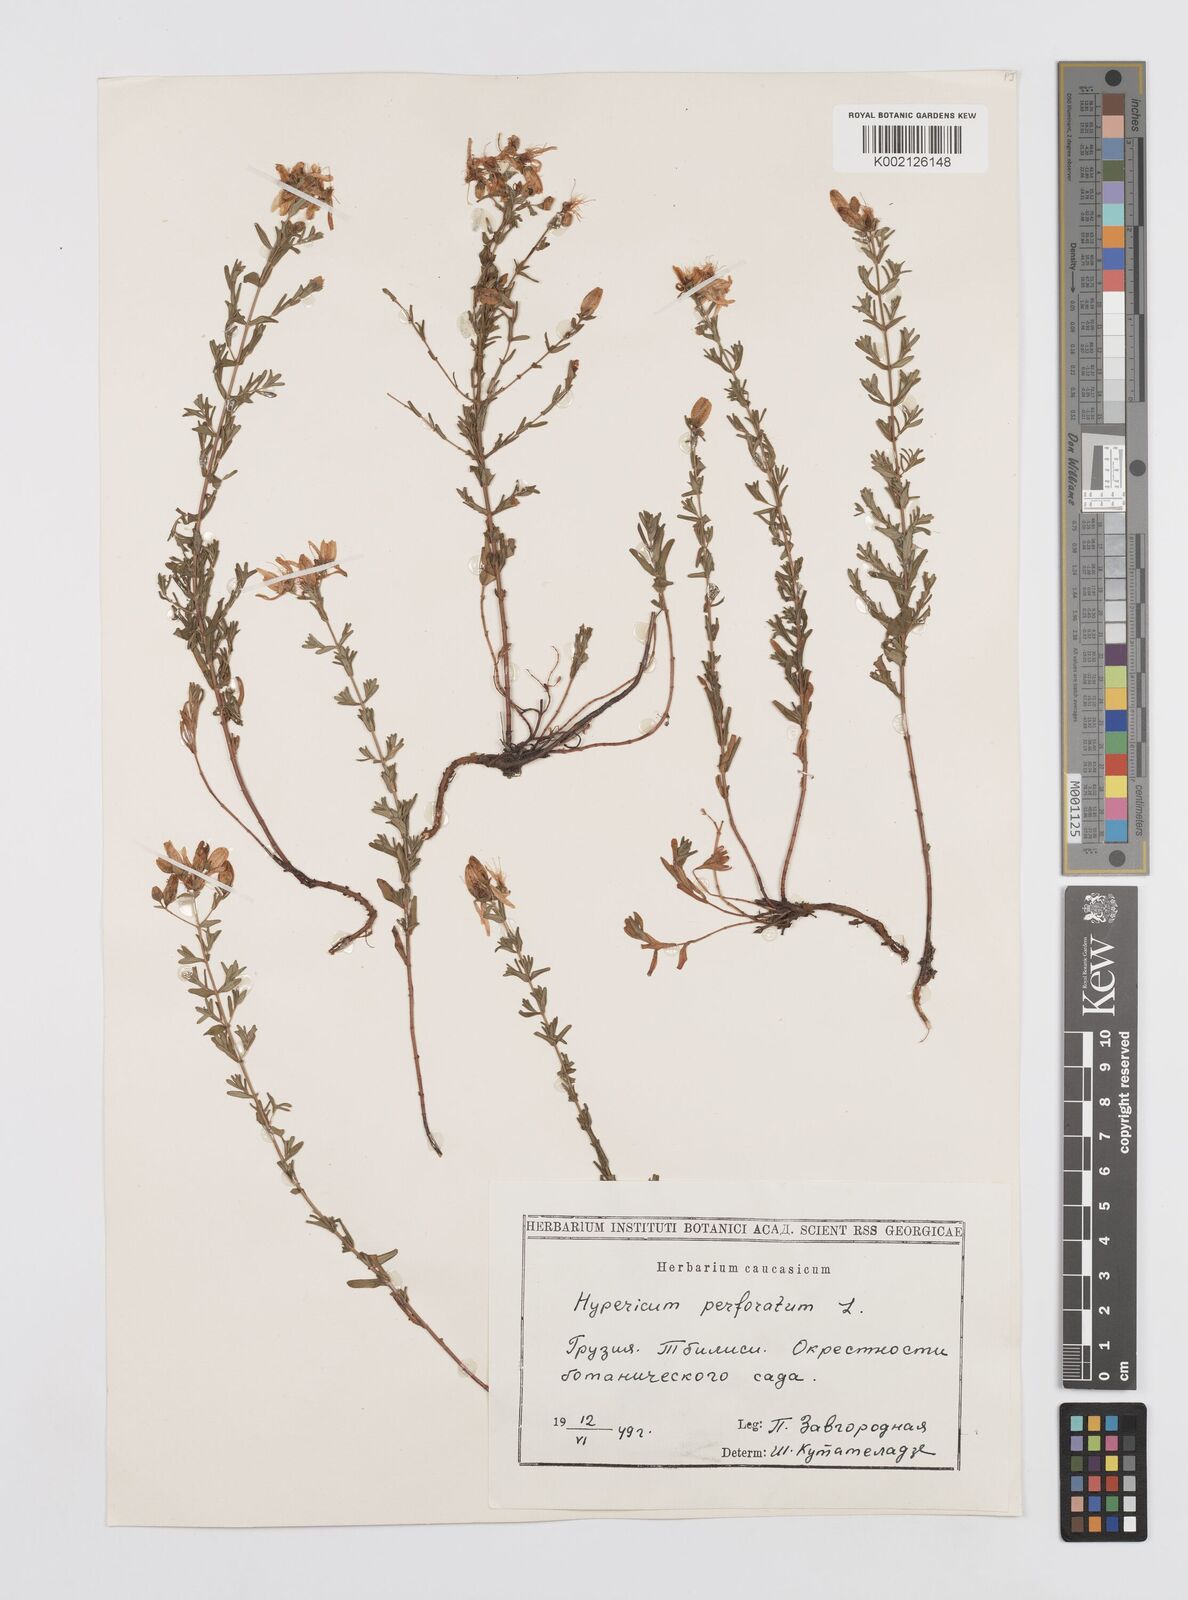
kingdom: Plantae
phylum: Tracheophyta
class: Magnoliopsida
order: Malpighiales
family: Hypericaceae
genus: Hypericum
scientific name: Hypericum perfoliatum
